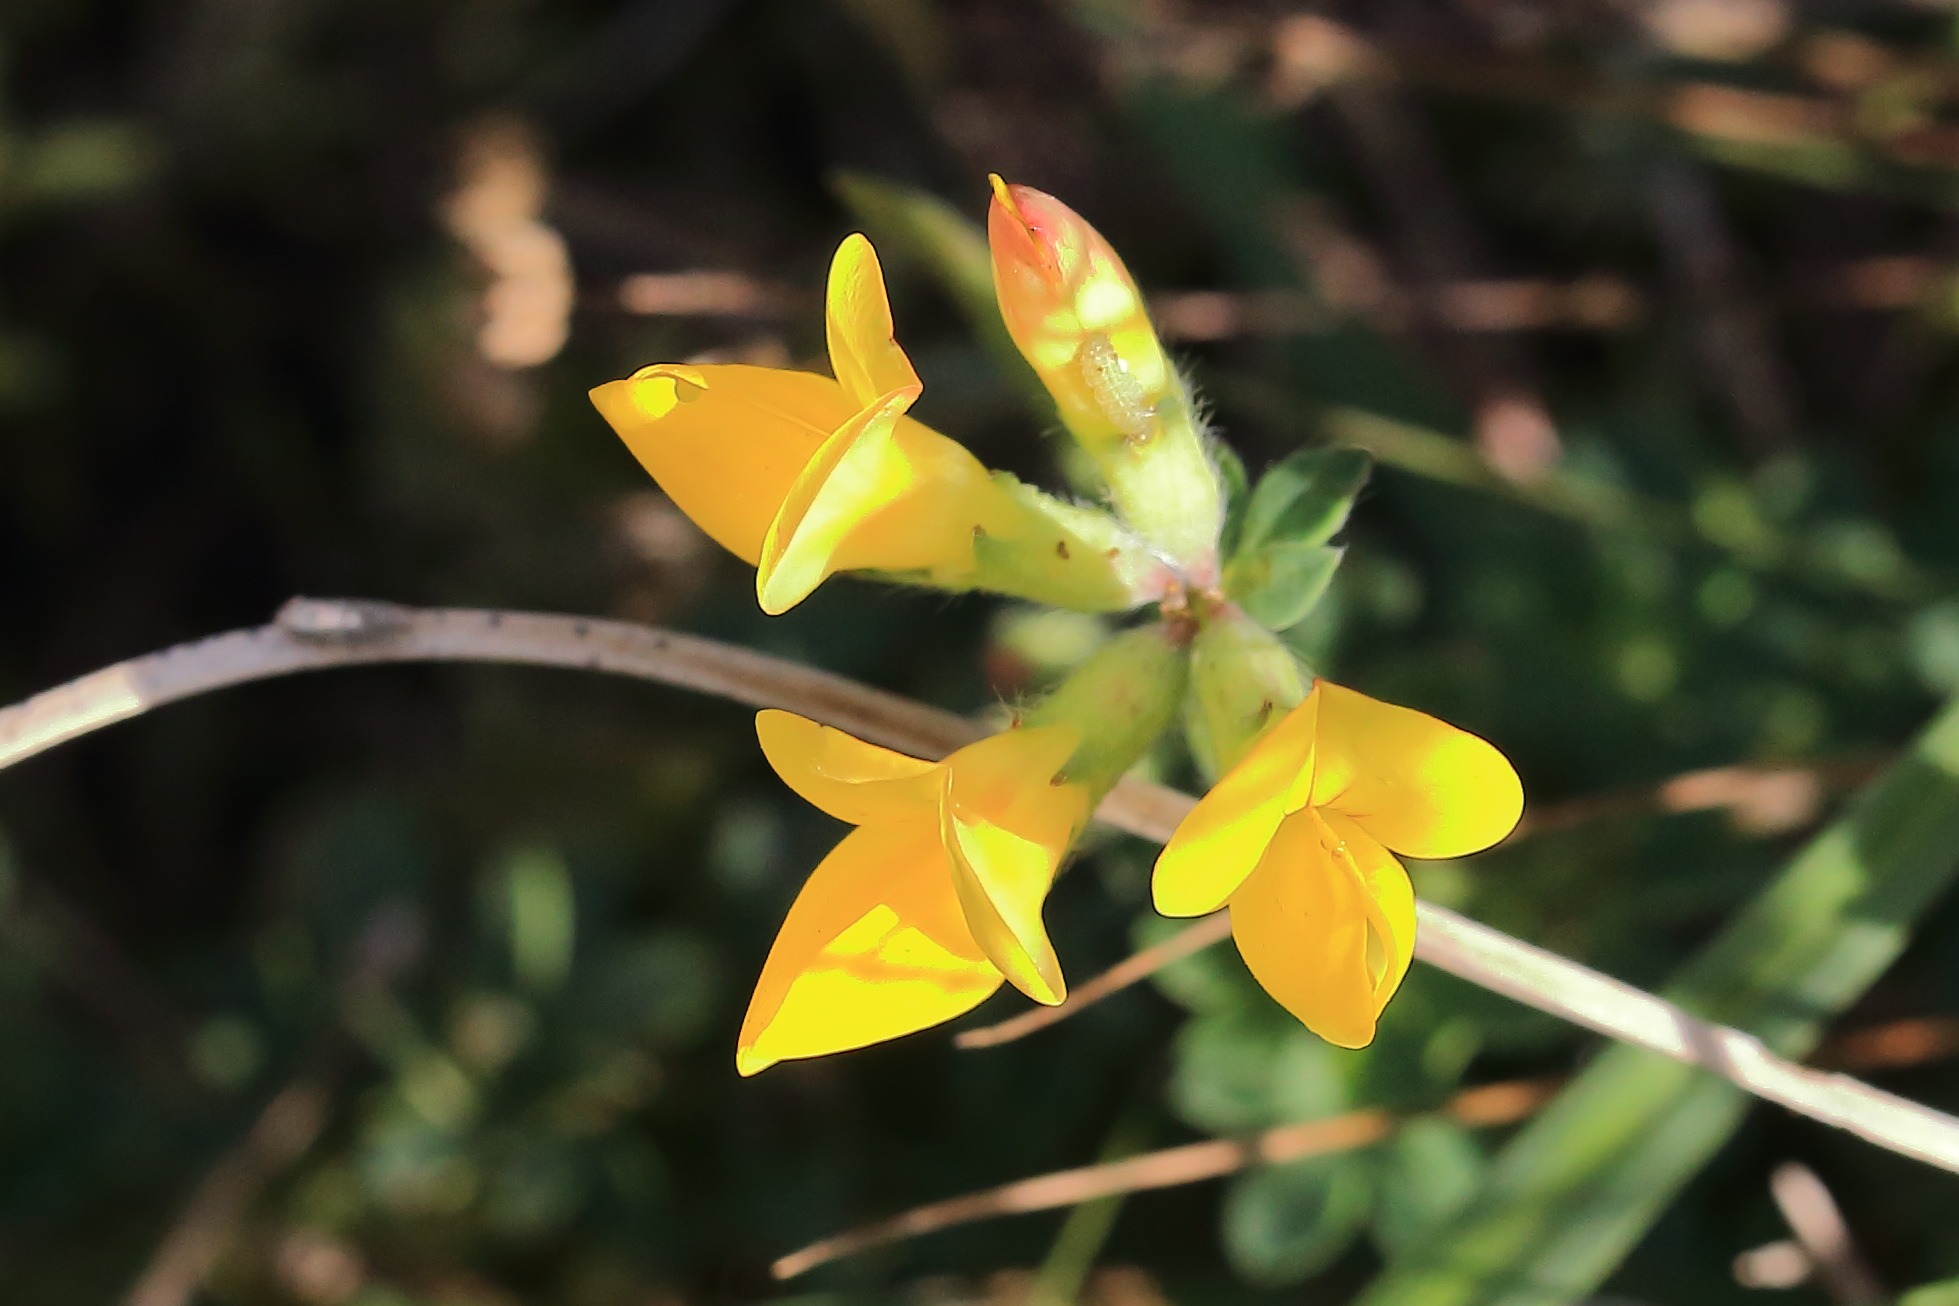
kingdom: Plantae
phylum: Tracheophyta
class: Magnoliopsida
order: Fabales
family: Fabaceae
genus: Lotus
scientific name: Lotus corniculatus
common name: Almindelig kællingetand
